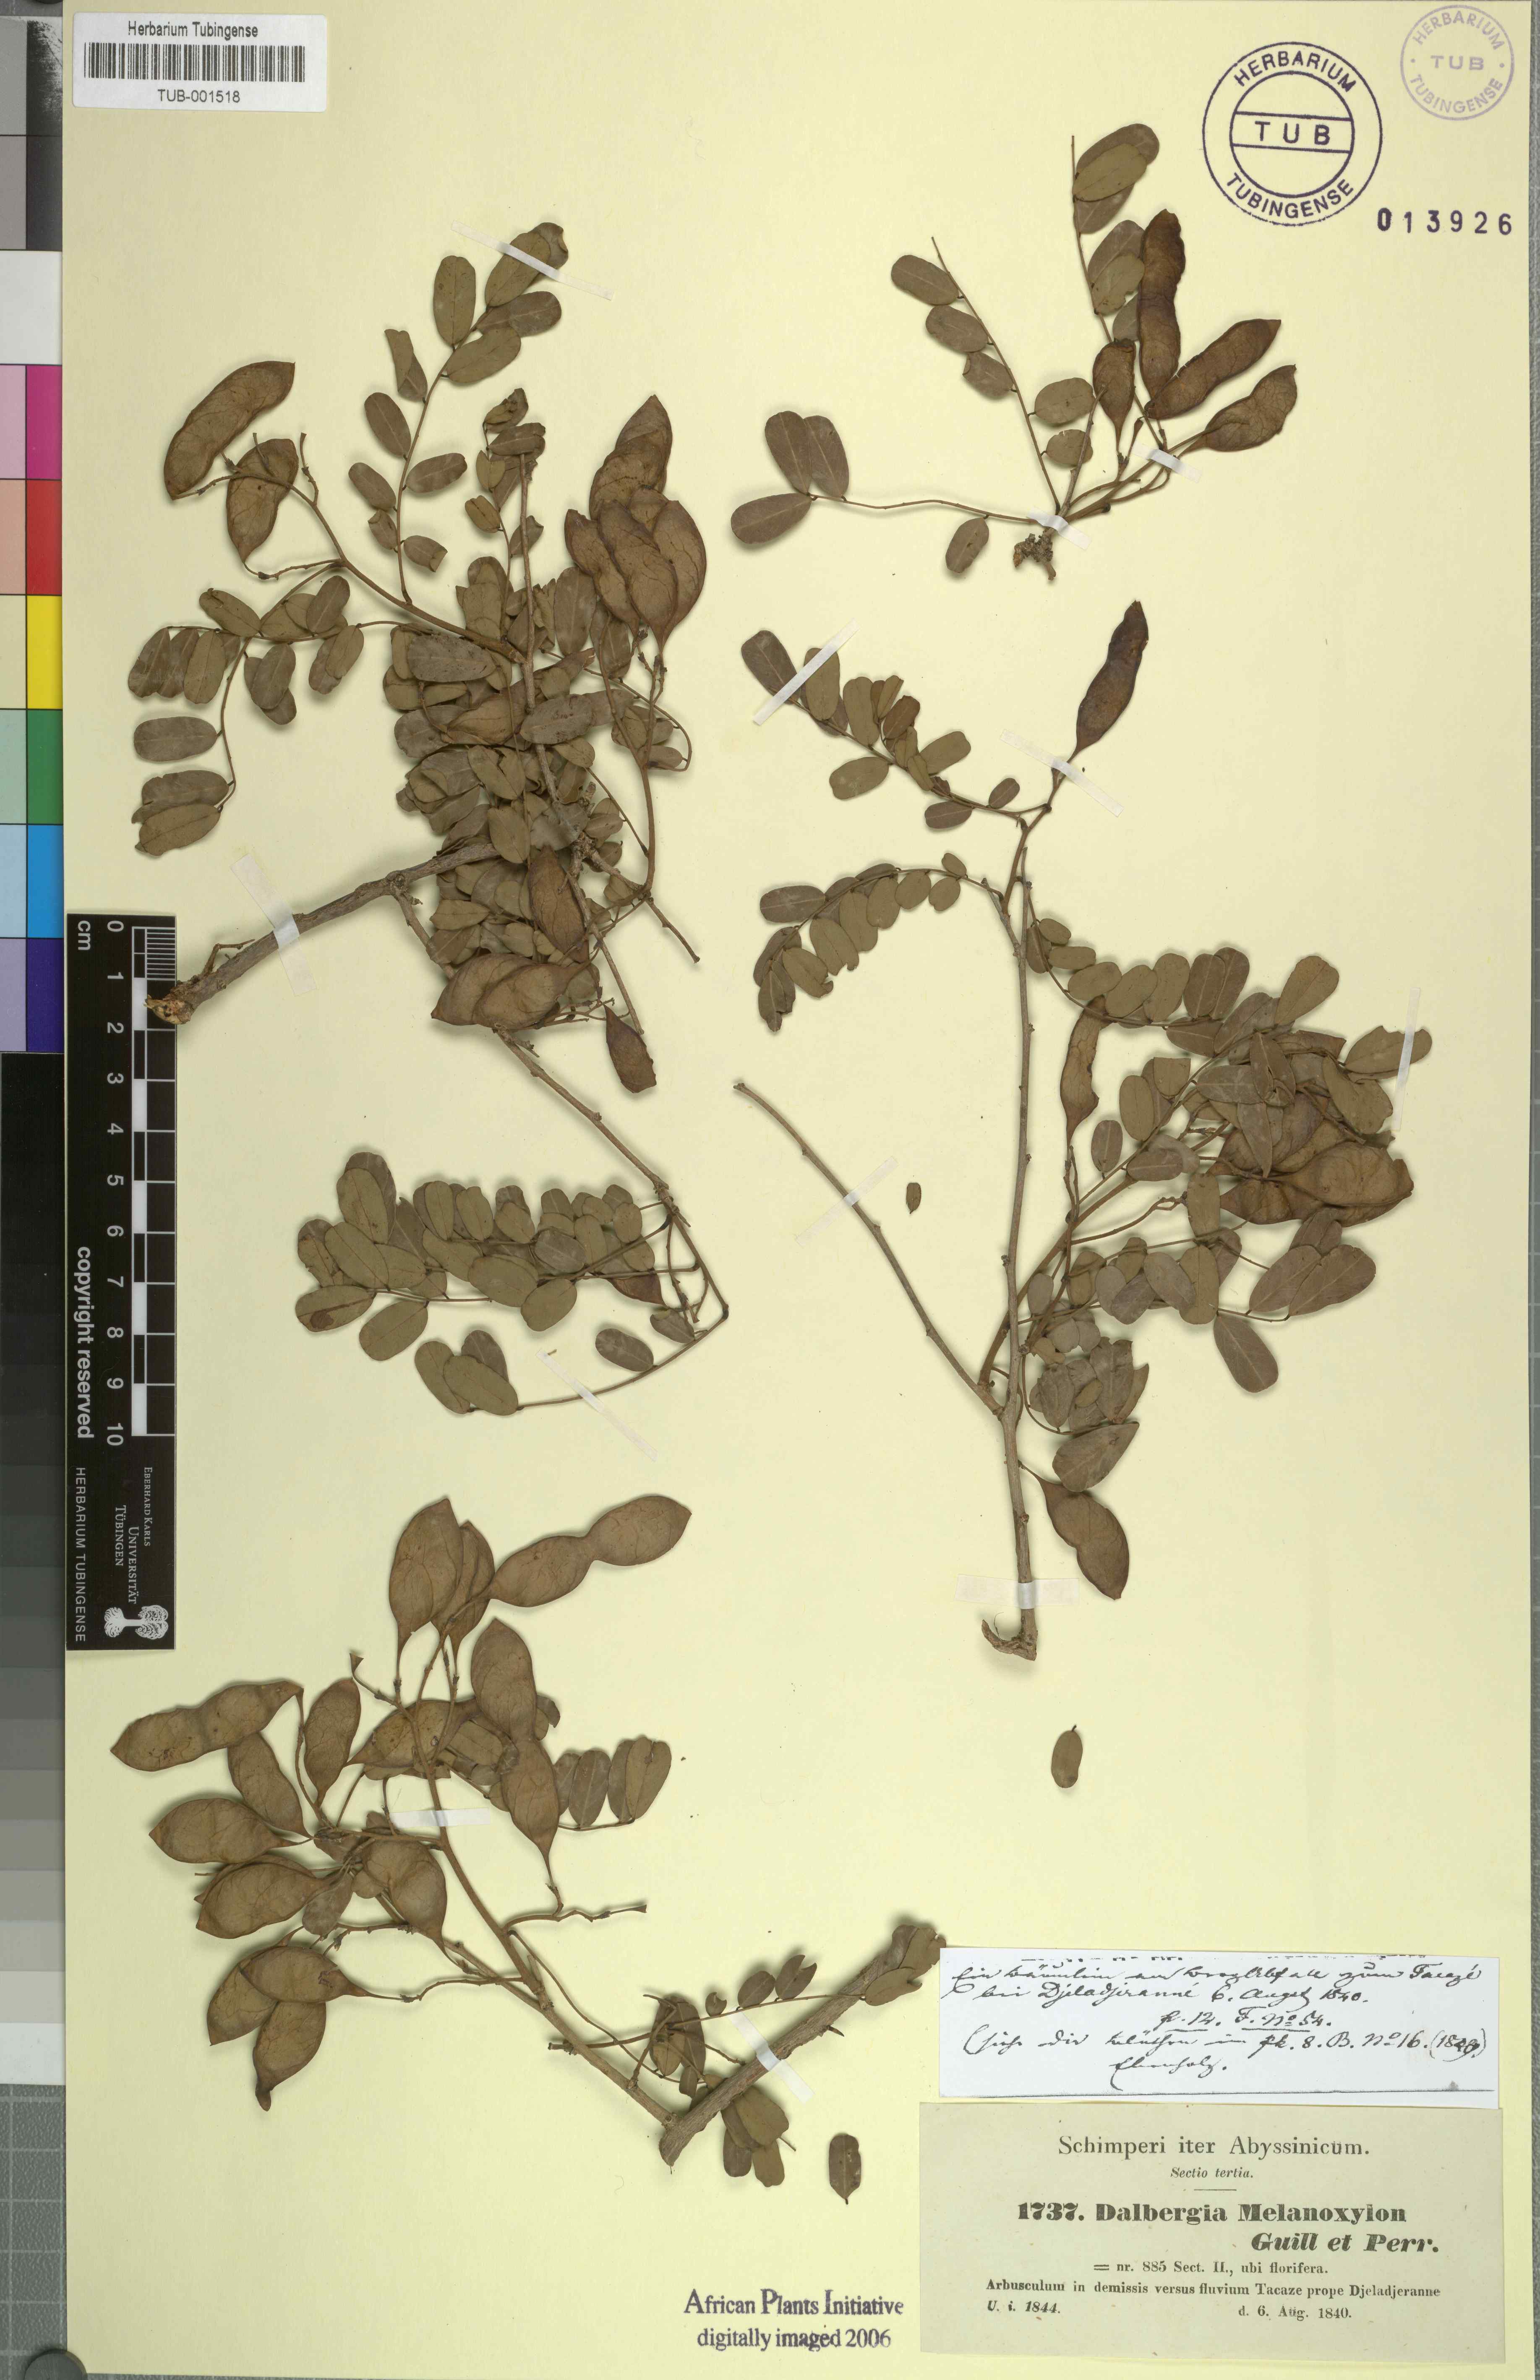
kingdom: Plantae
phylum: Tracheophyta
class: Magnoliopsida
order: Fabales
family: Fabaceae
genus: Dalbergia
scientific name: Dalbergia melanoxylon
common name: African blackwood
